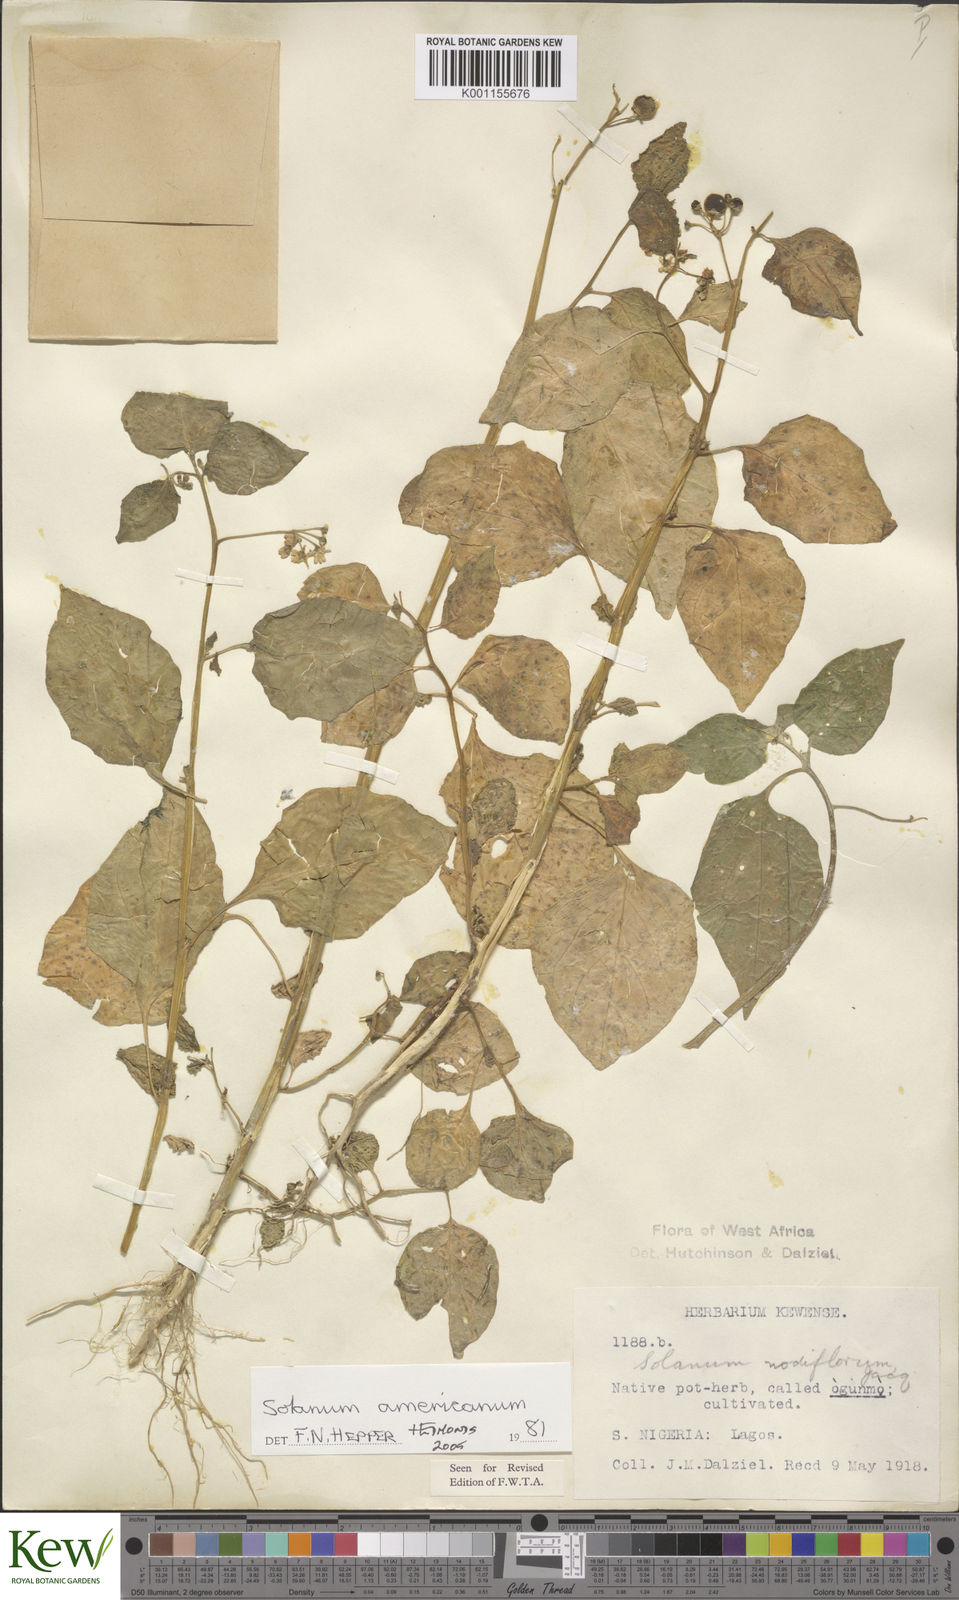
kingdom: Plantae
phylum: Tracheophyta
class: Magnoliopsida
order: Solanales
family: Solanaceae
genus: Solanum
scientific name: Solanum scabrum
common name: Garden-huckleberry
